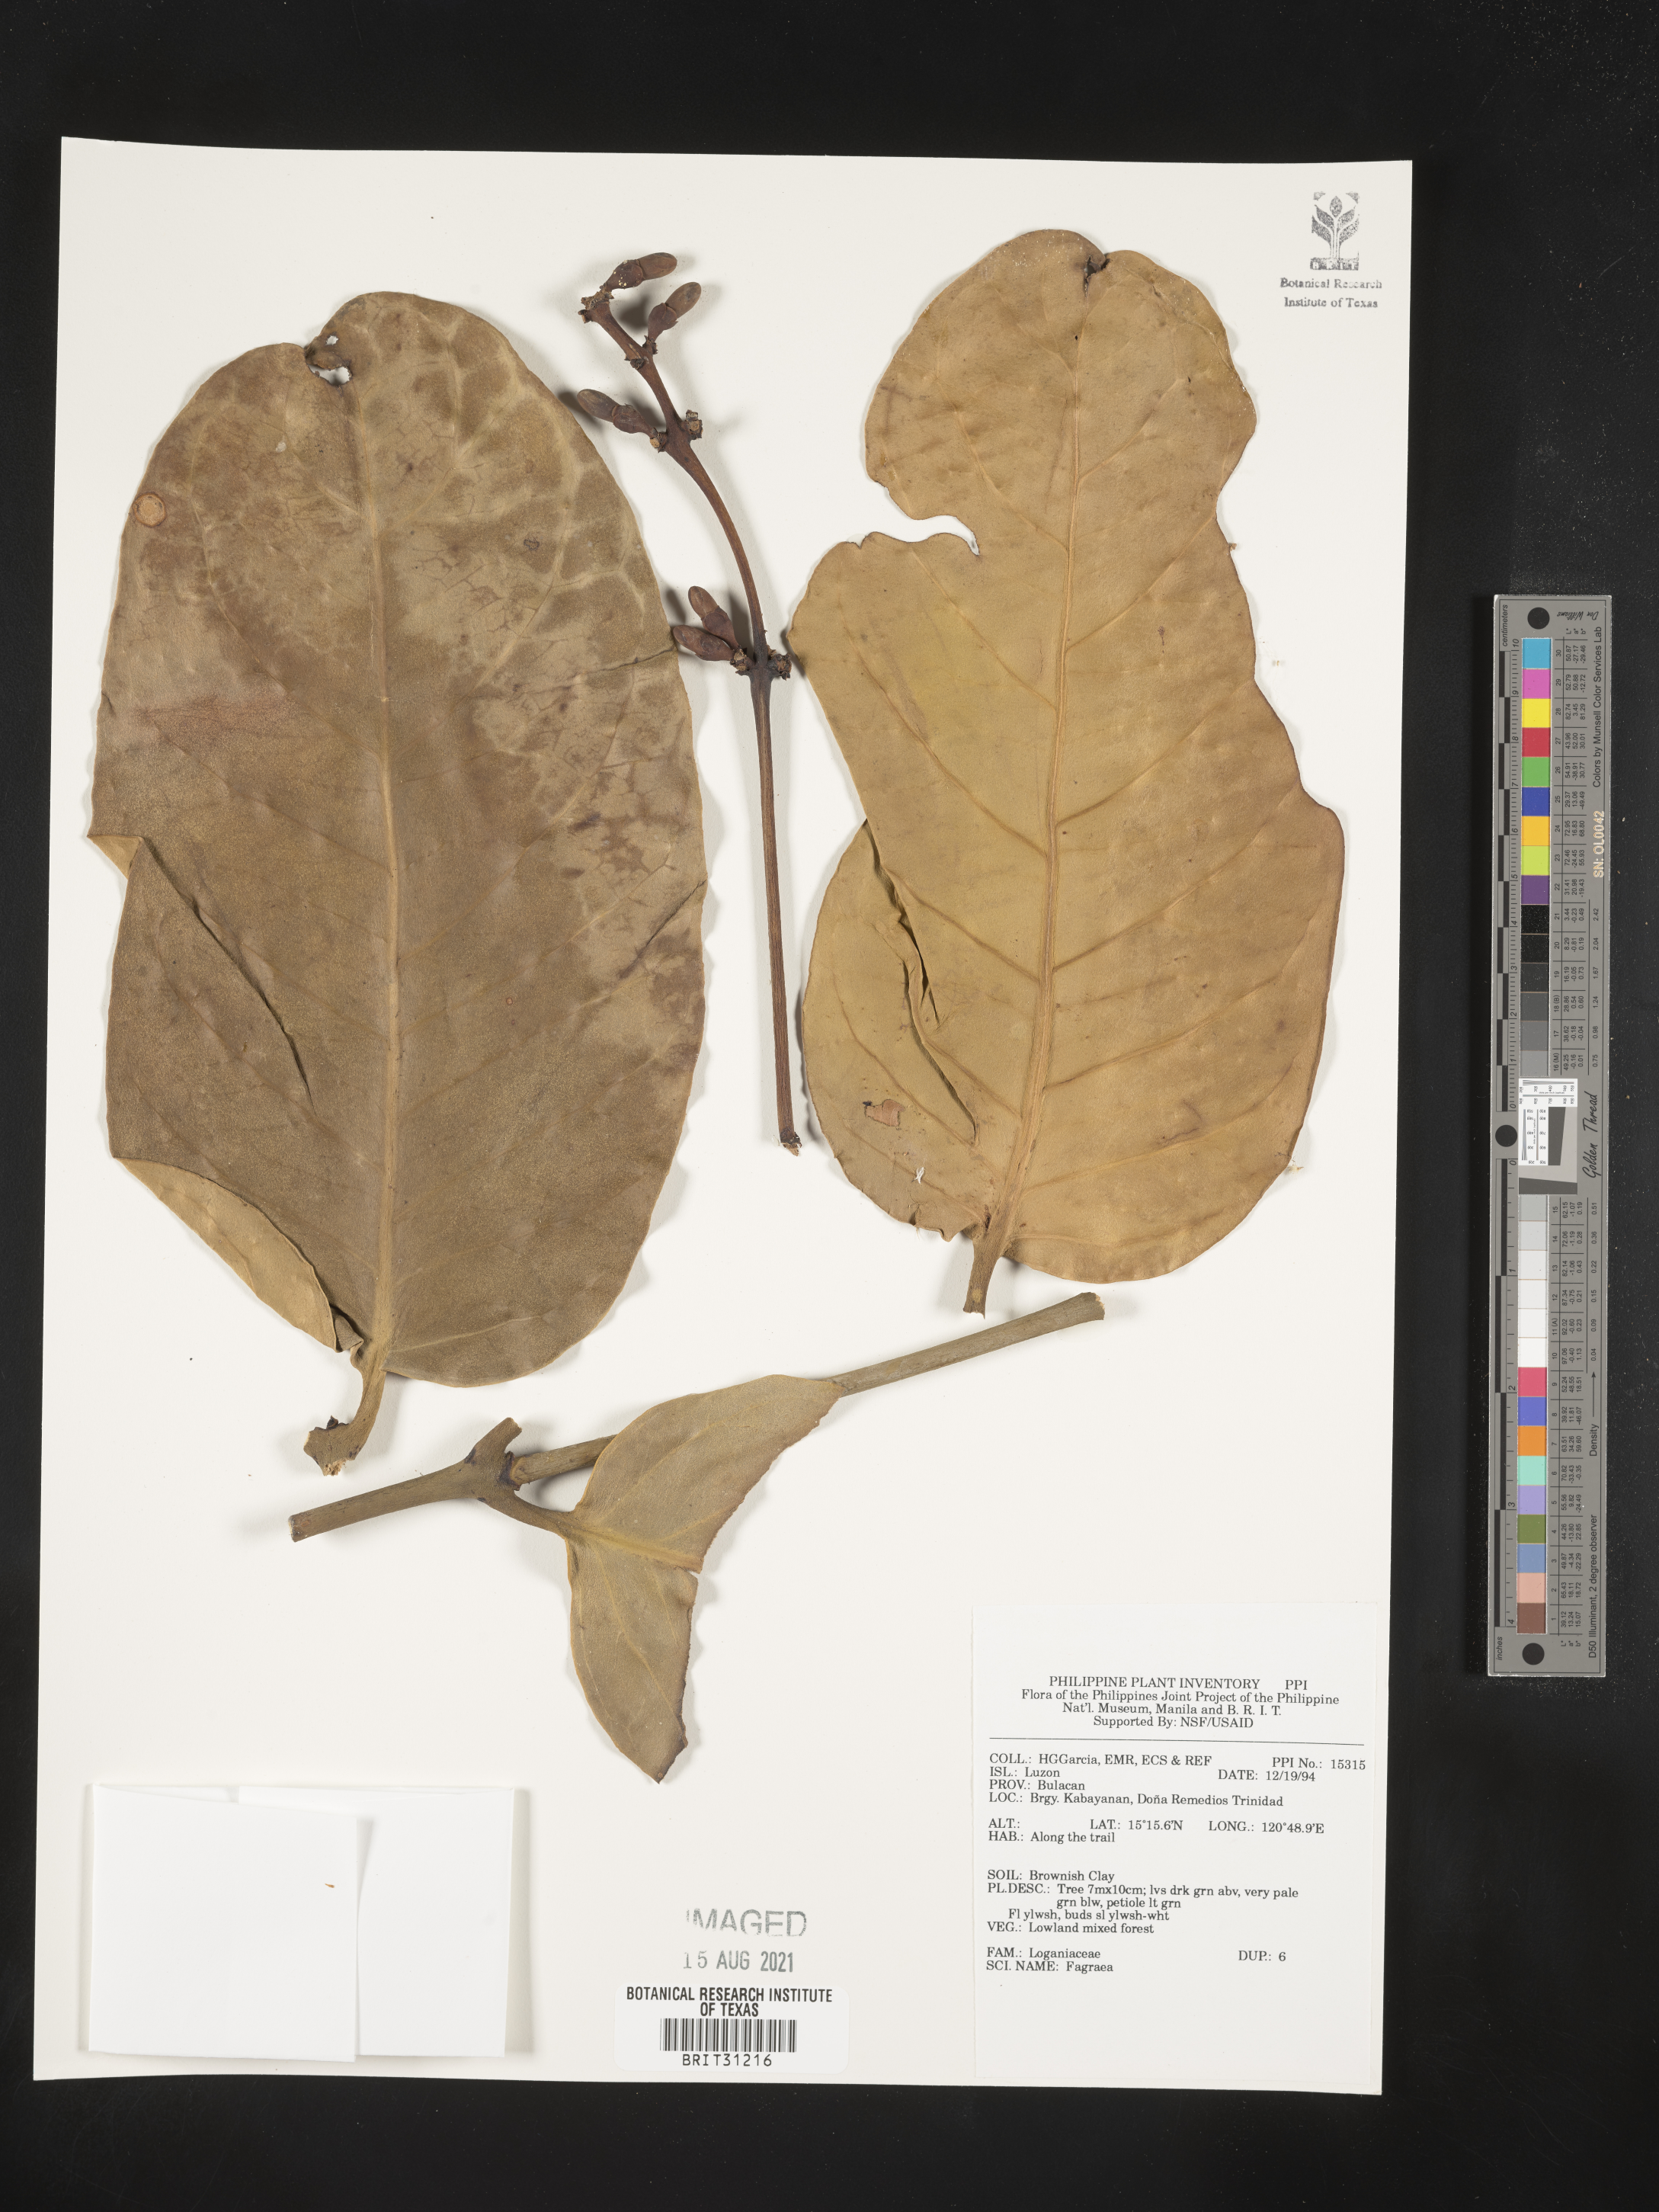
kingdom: Plantae
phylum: Tracheophyta
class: Magnoliopsida
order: Gentianales
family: Gentianaceae
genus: Fagraea
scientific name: Fagraea
